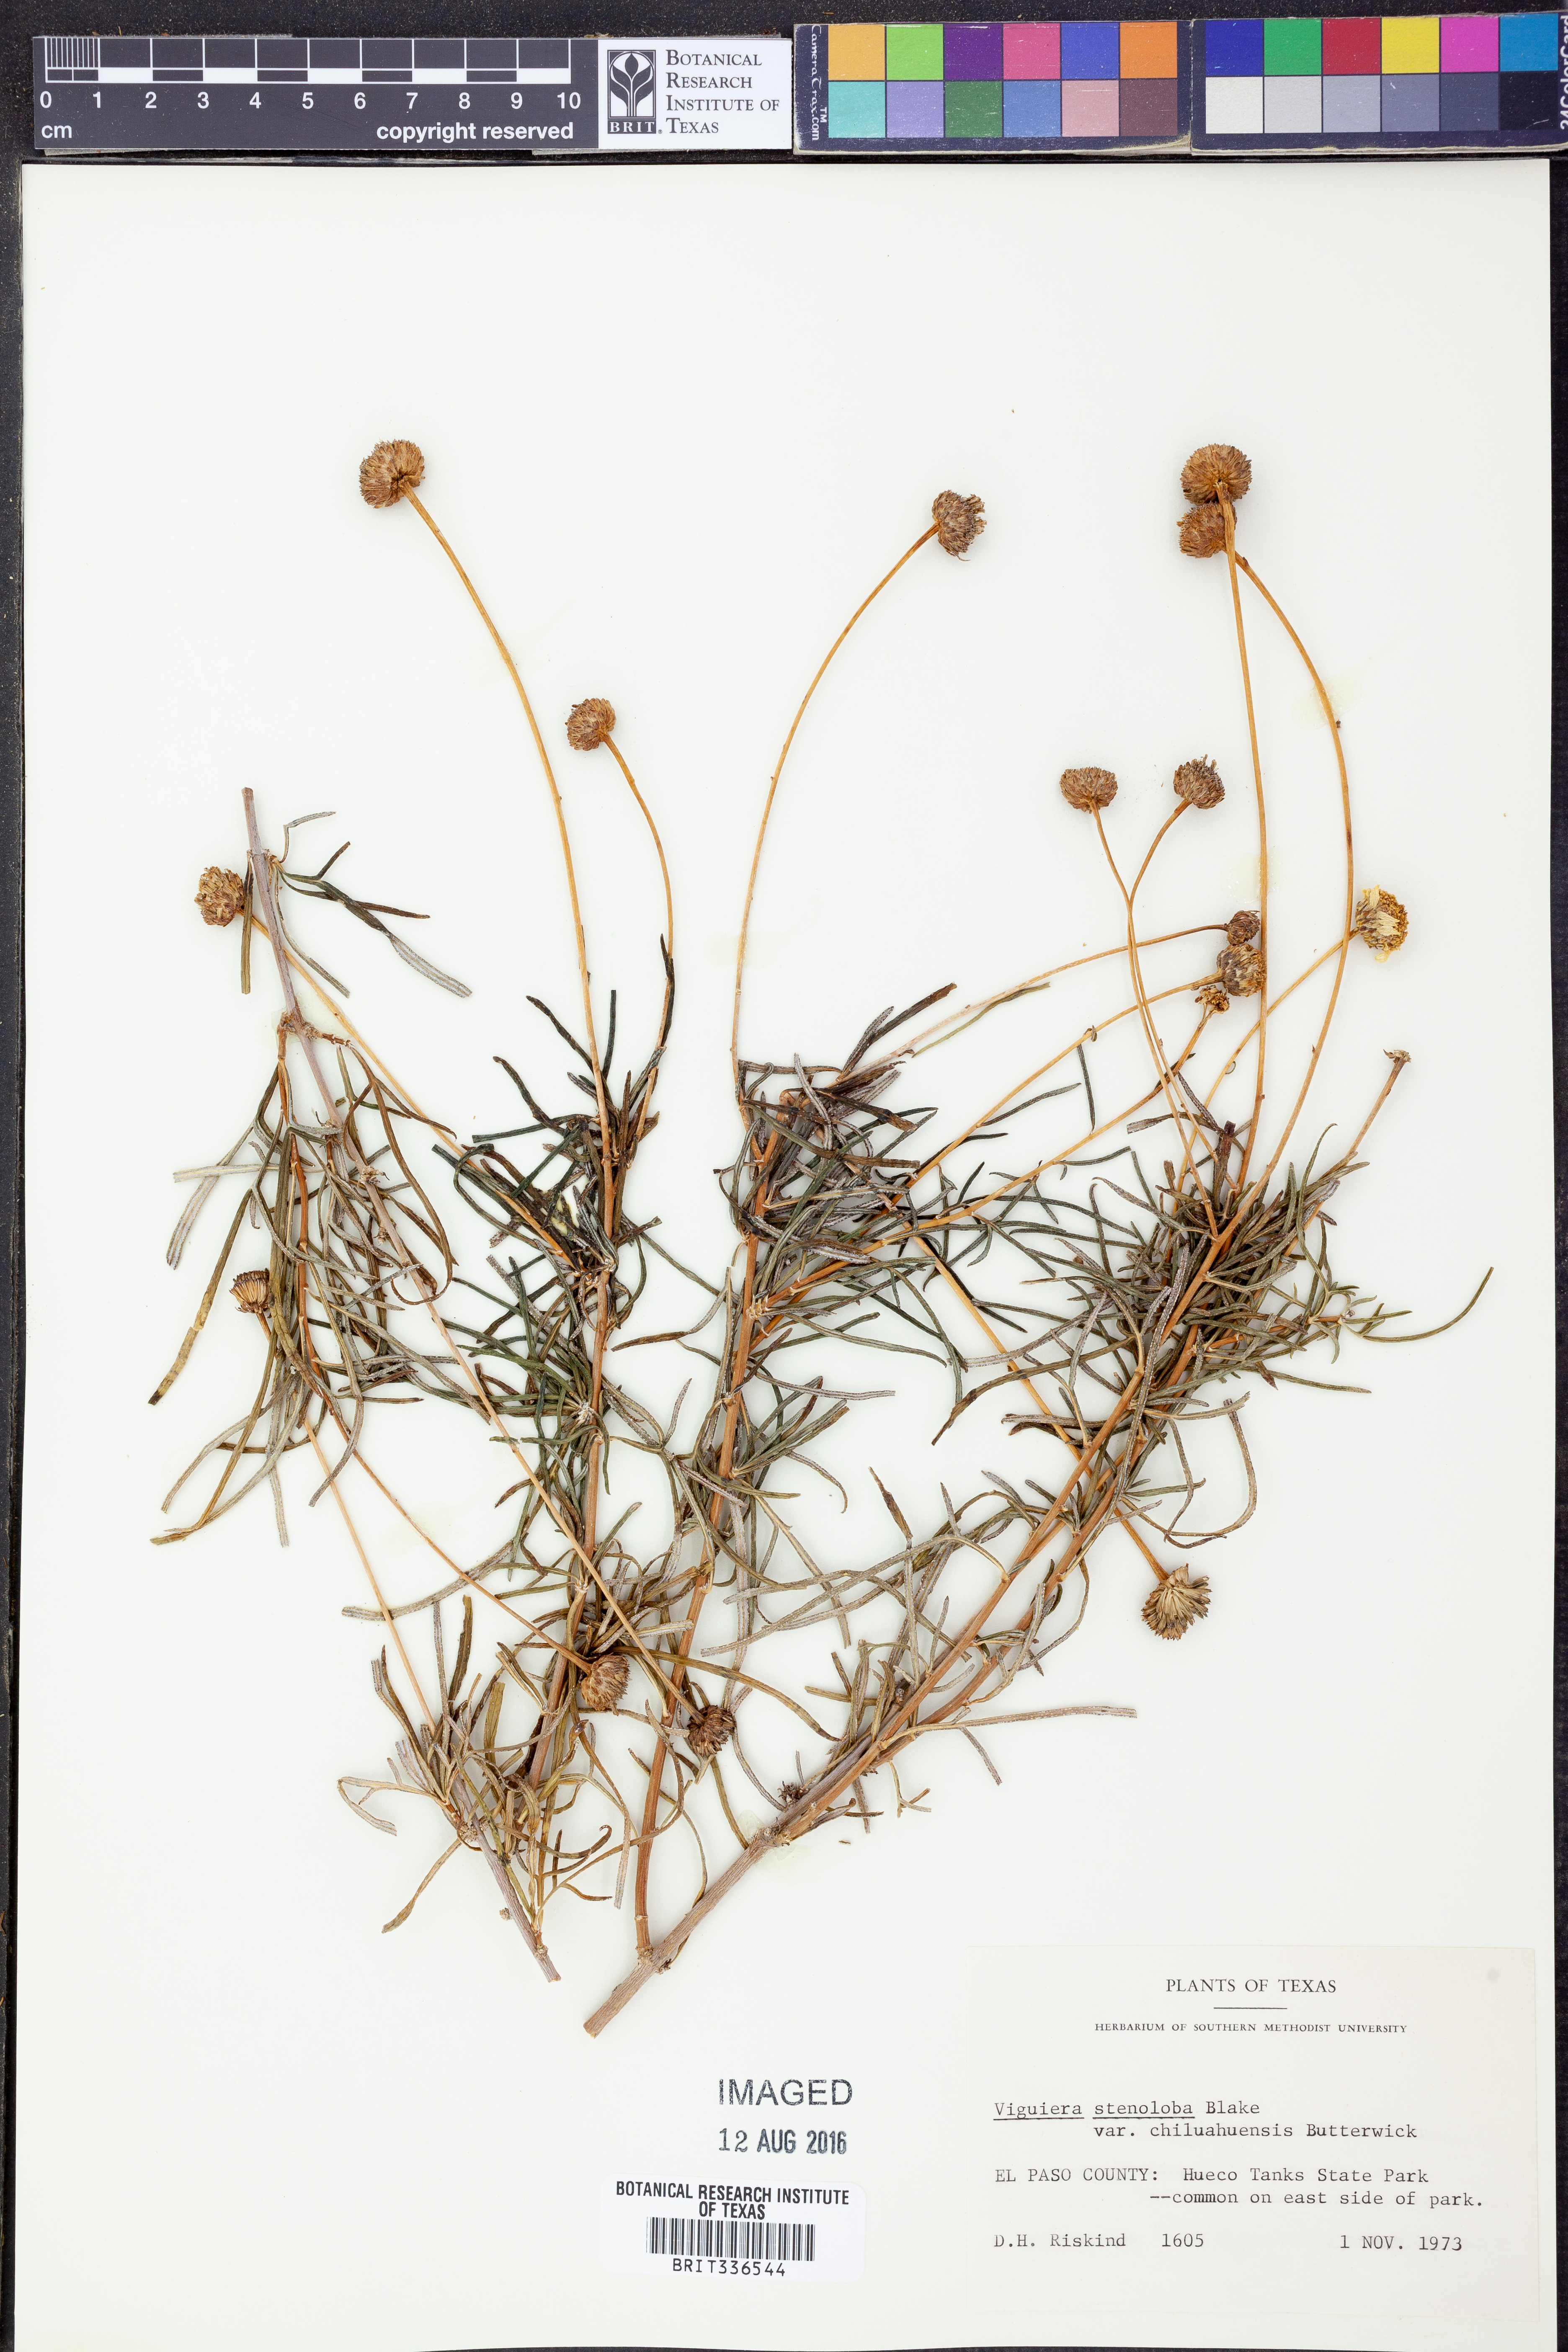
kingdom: Plantae
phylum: Tracheophyta
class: Magnoliopsida
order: Asterales
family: Asteraceae
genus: Sidneya
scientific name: Sidneya tenuifolia
